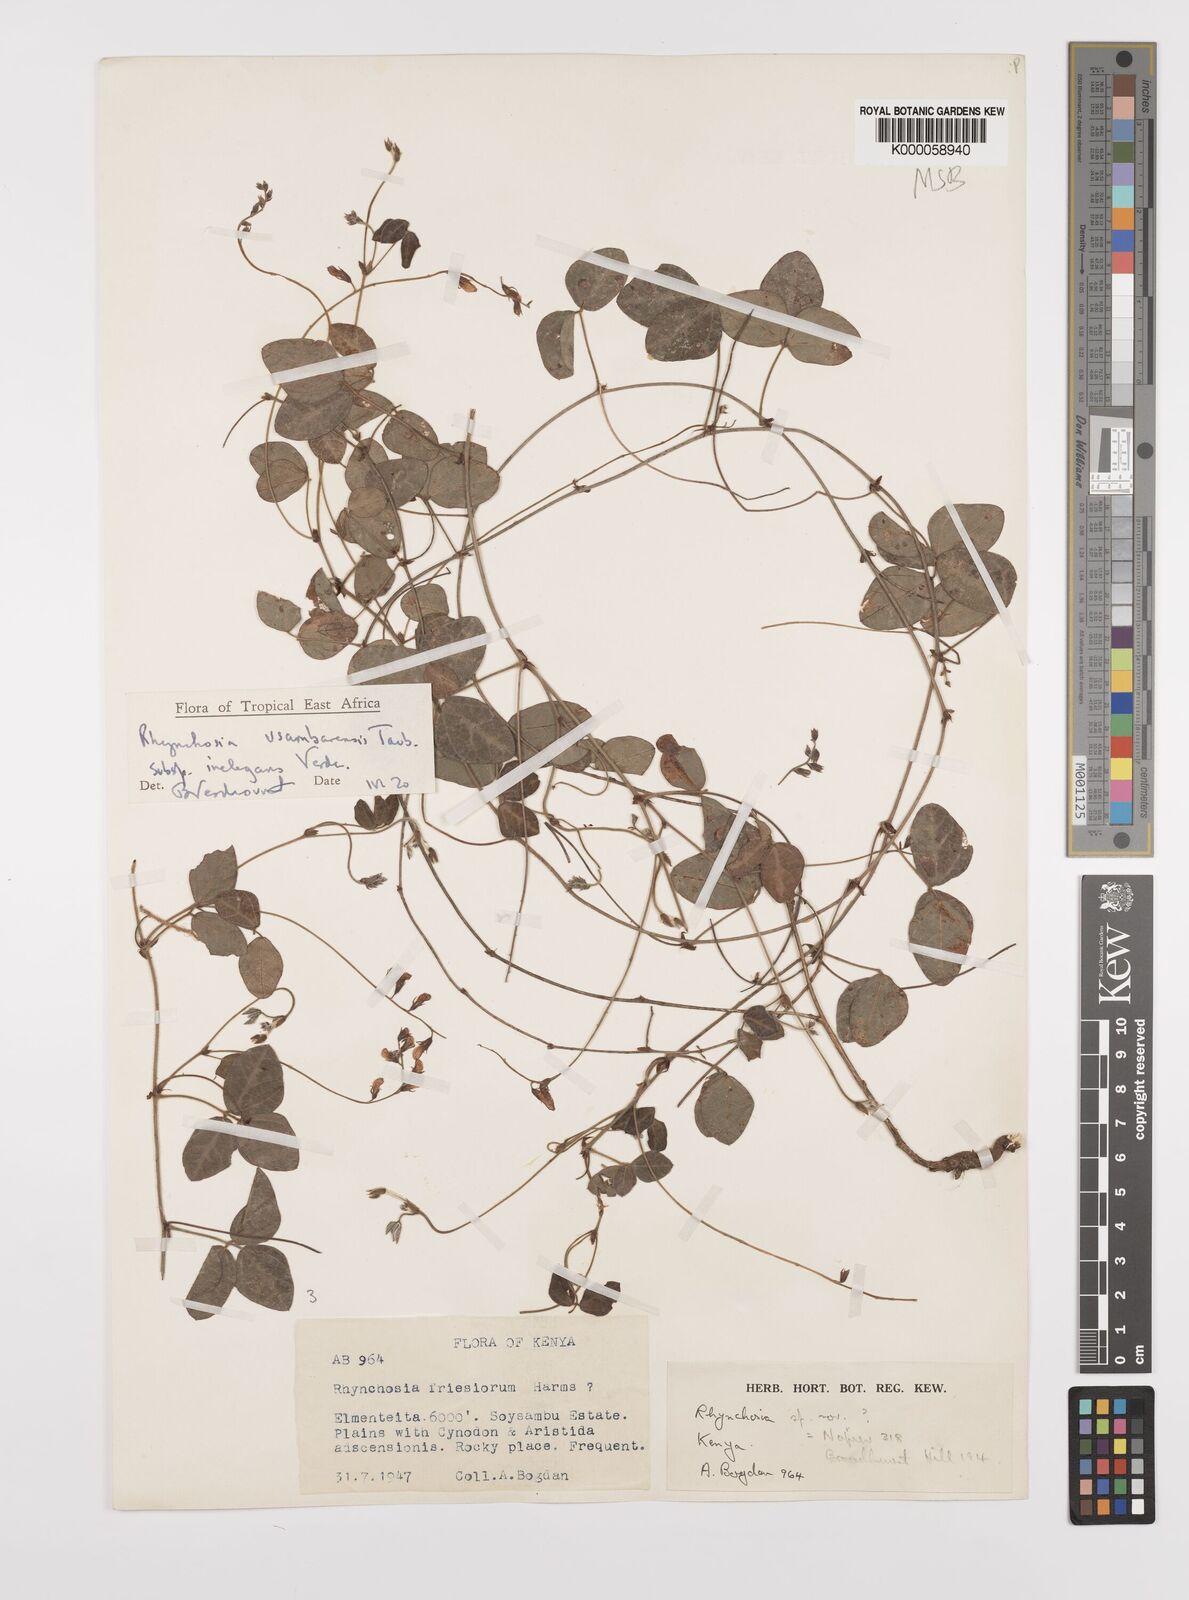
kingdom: Plantae
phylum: Tracheophyta
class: Magnoliopsida
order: Fabales
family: Fabaceae
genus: Rhynchosia
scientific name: Rhynchosia usambarensis
